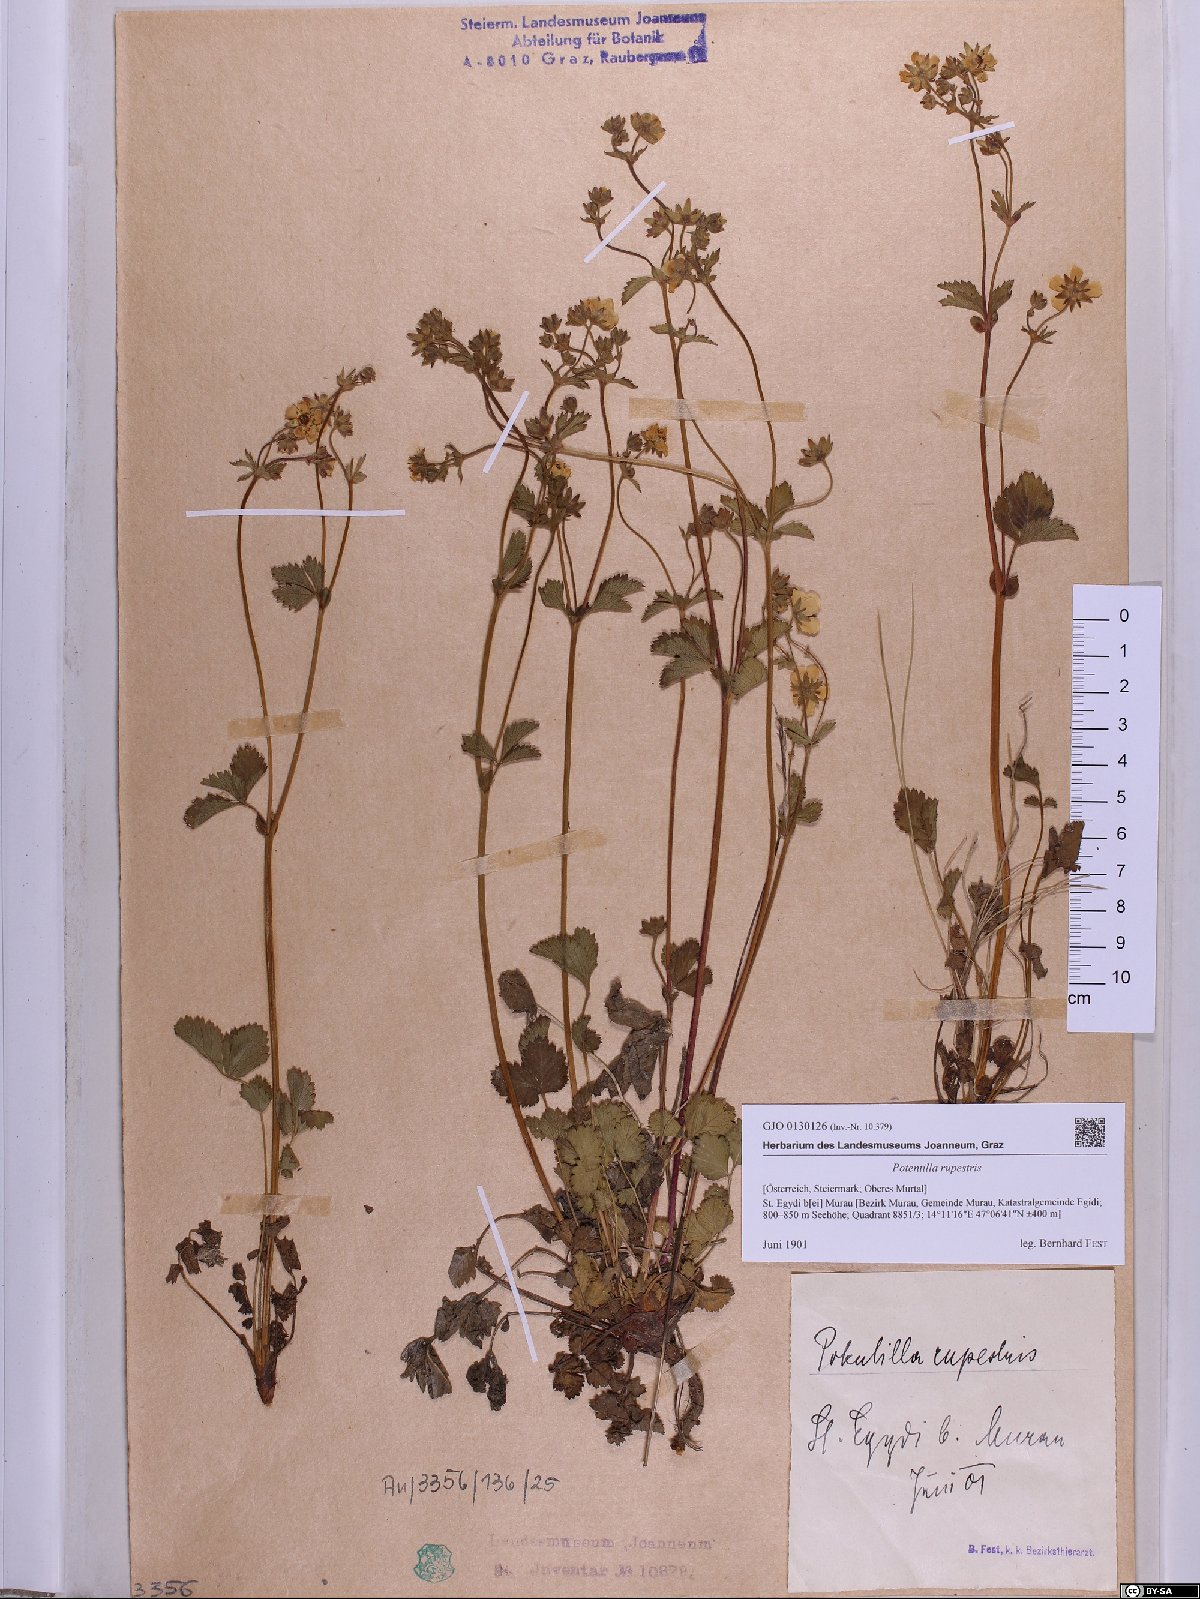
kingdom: Plantae
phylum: Tracheophyta
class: Magnoliopsida
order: Rosales
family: Rosaceae
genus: Drymocallis
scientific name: Drymocallis rupestris
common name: Rock cinquefoil
